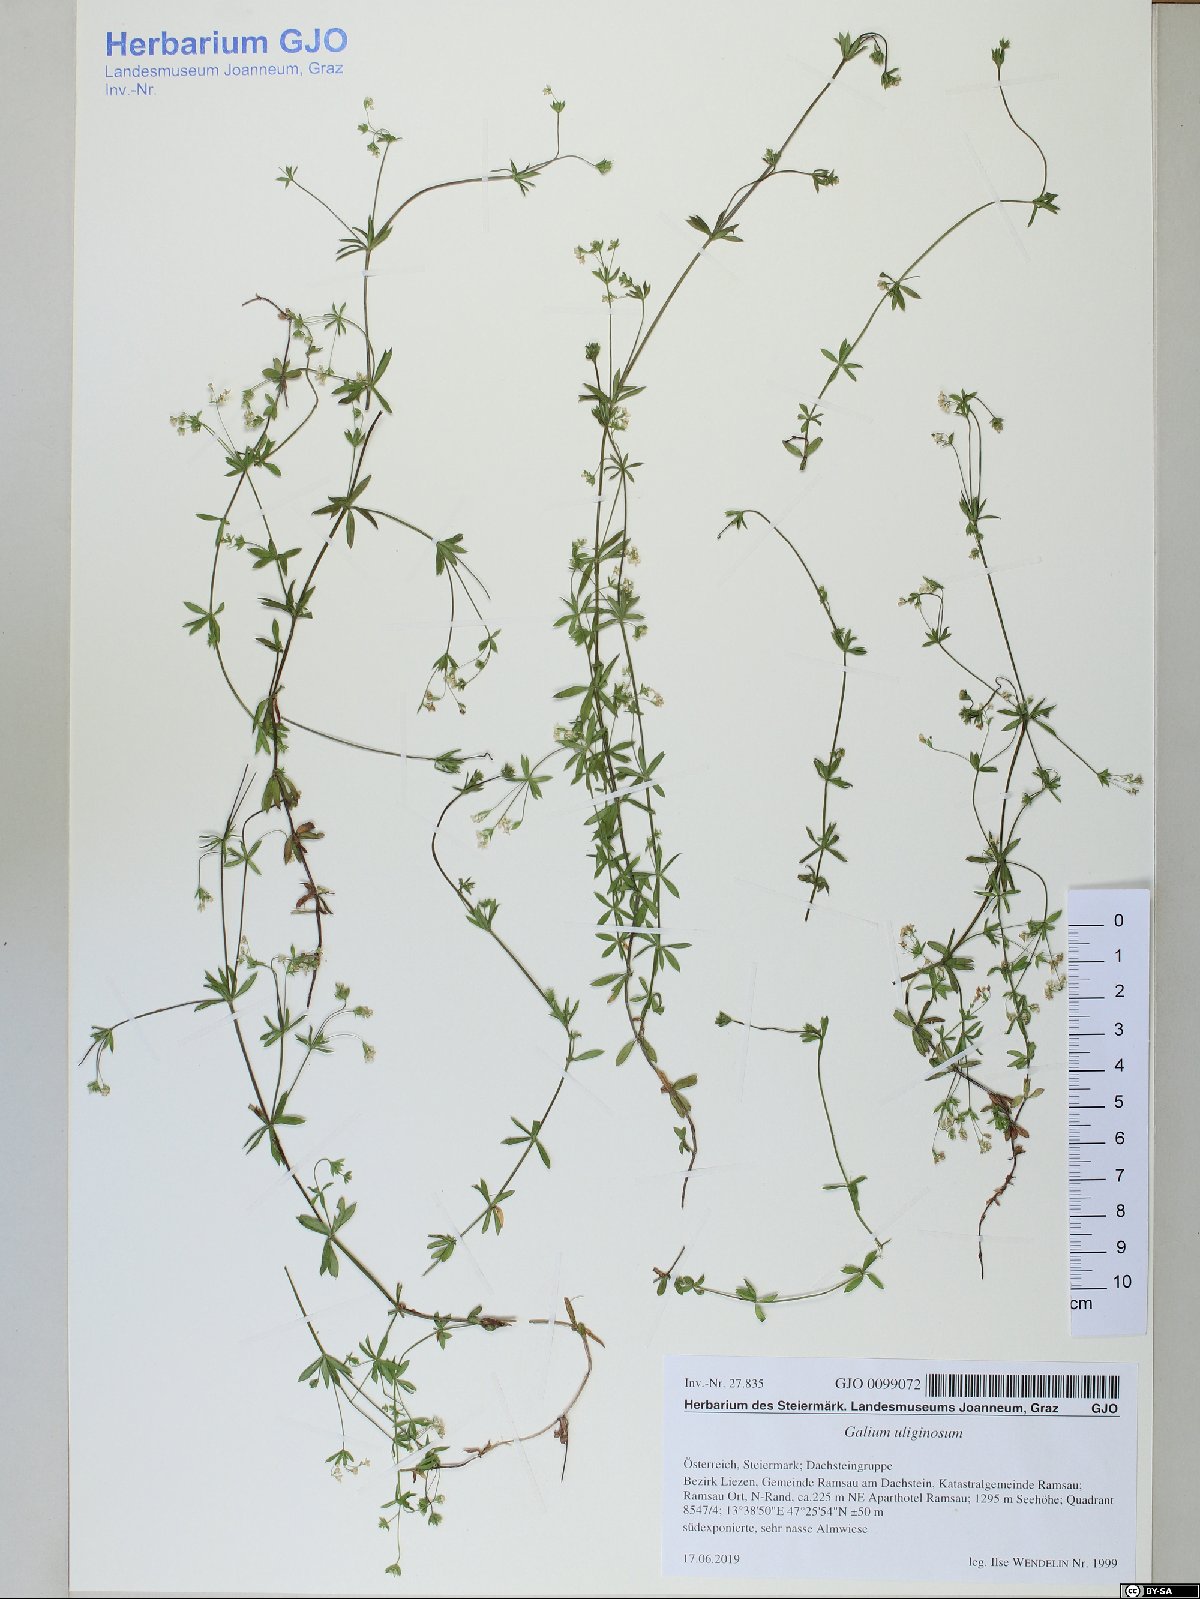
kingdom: Plantae
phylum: Tracheophyta
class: Magnoliopsida
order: Gentianales
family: Rubiaceae
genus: Galium
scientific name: Galium uliginosum
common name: Fen bedstraw
